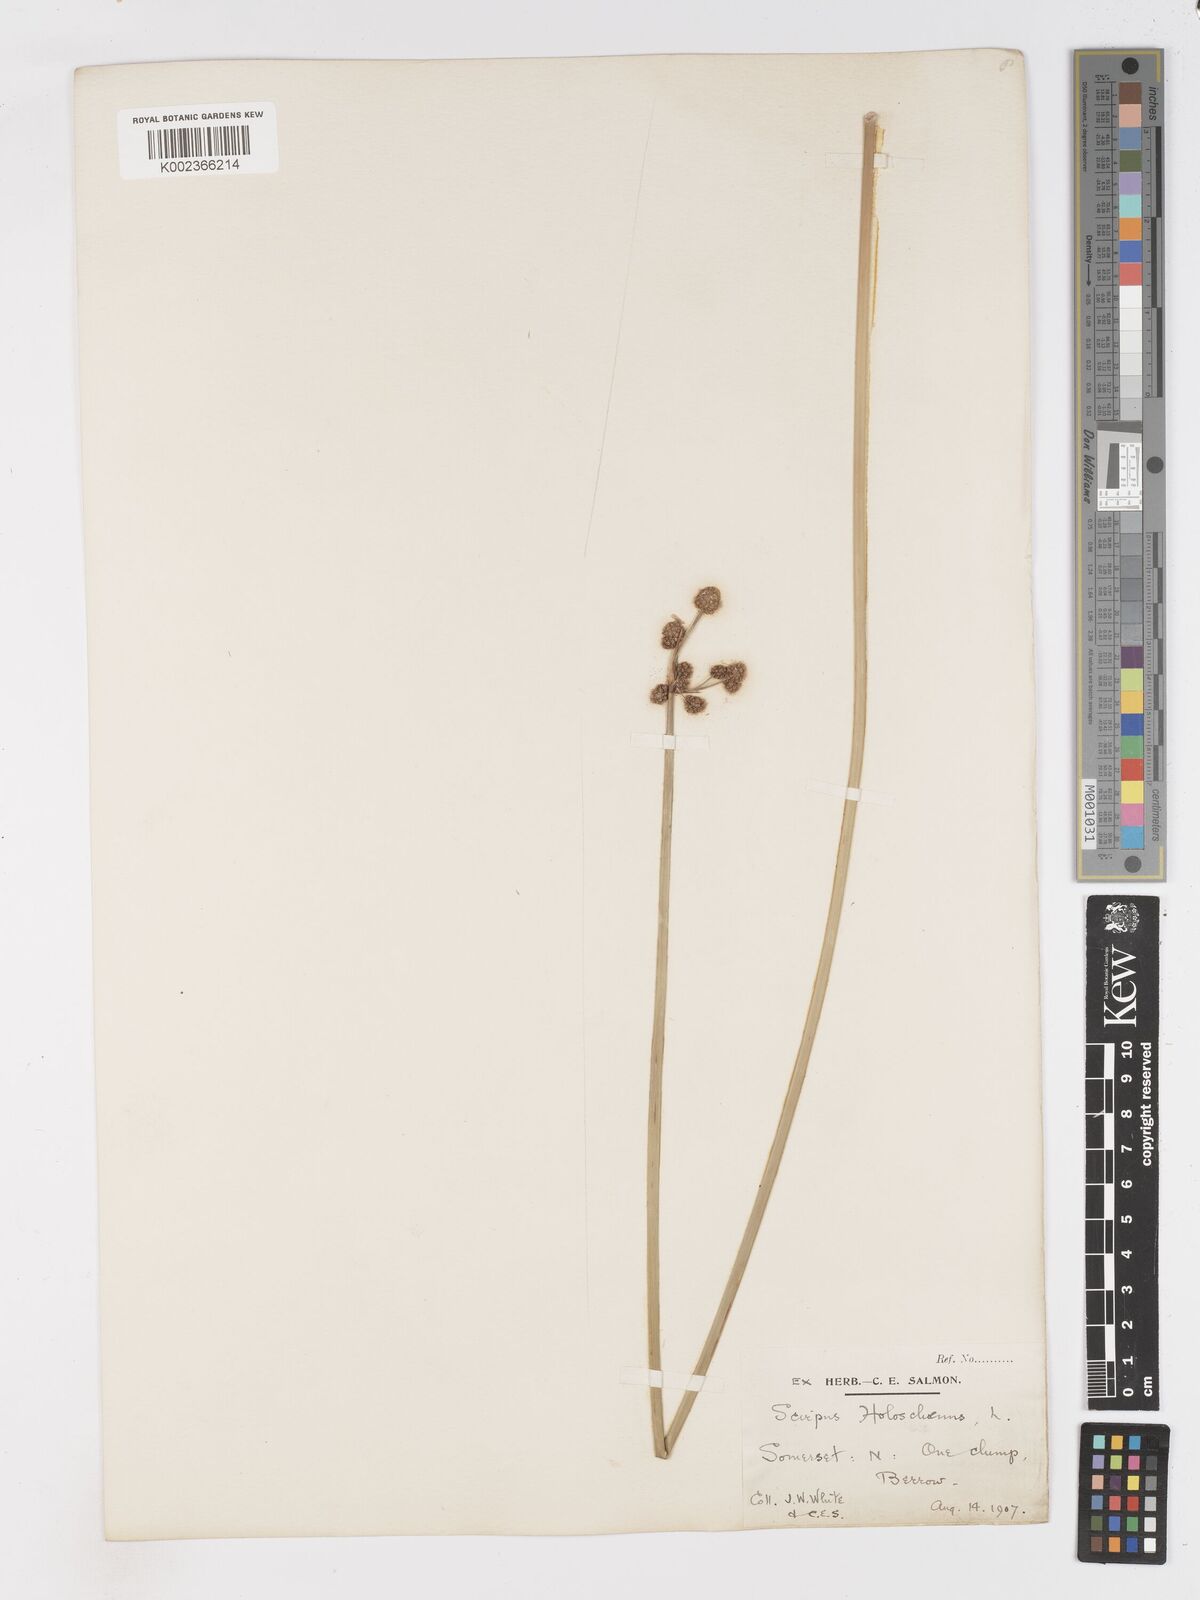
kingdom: Plantae
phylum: Tracheophyta
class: Liliopsida
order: Poales
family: Cyperaceae
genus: Scirpoides
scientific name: Scirpoides holoschoenus
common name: Round-headed club-rush
